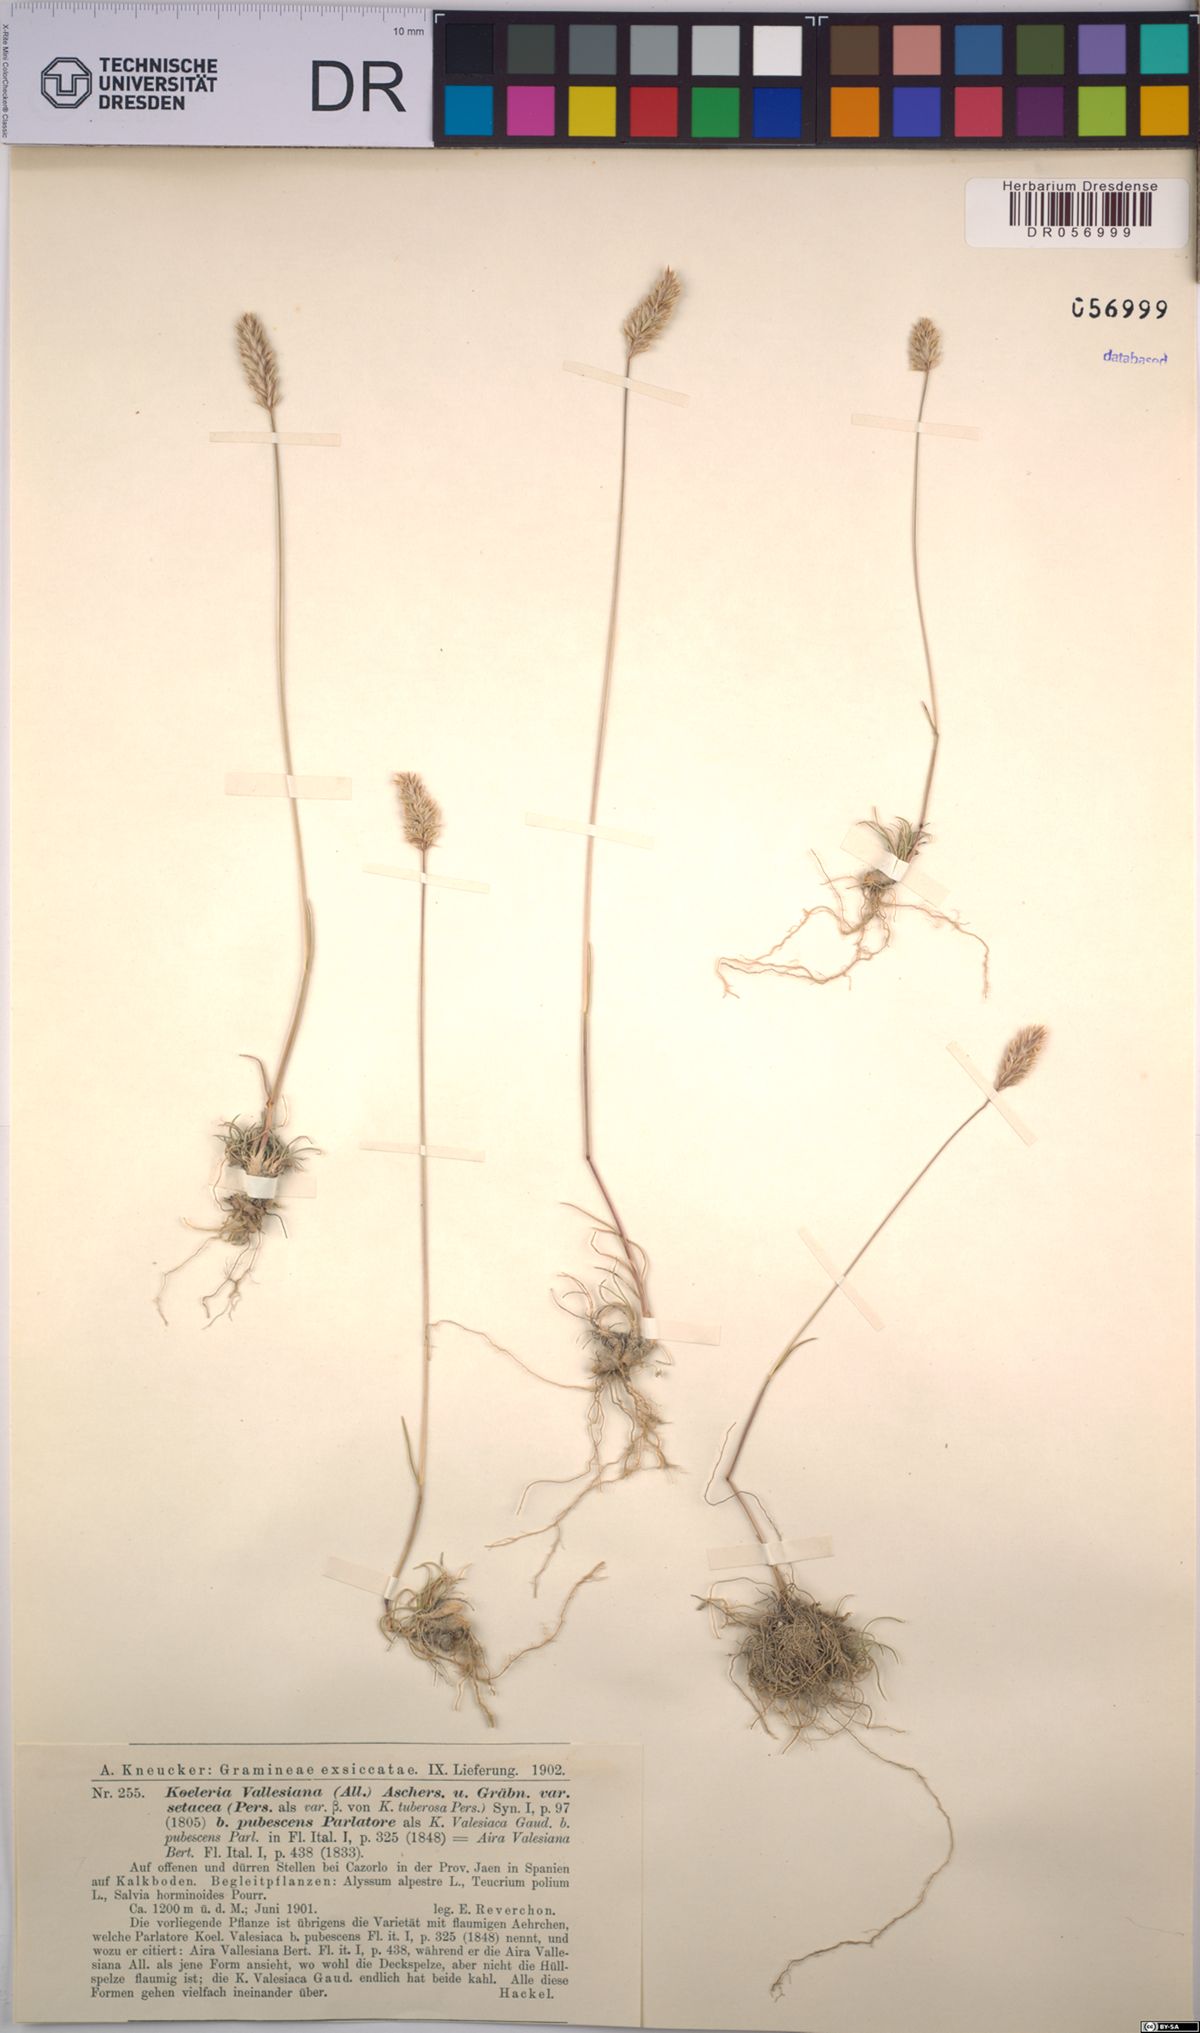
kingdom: Plantae
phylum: Tracheophyta
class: Liliopsida
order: Poales
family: Poaceae
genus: Koeleria
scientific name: Koeleria vallesiana
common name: Somerset hair-grass
